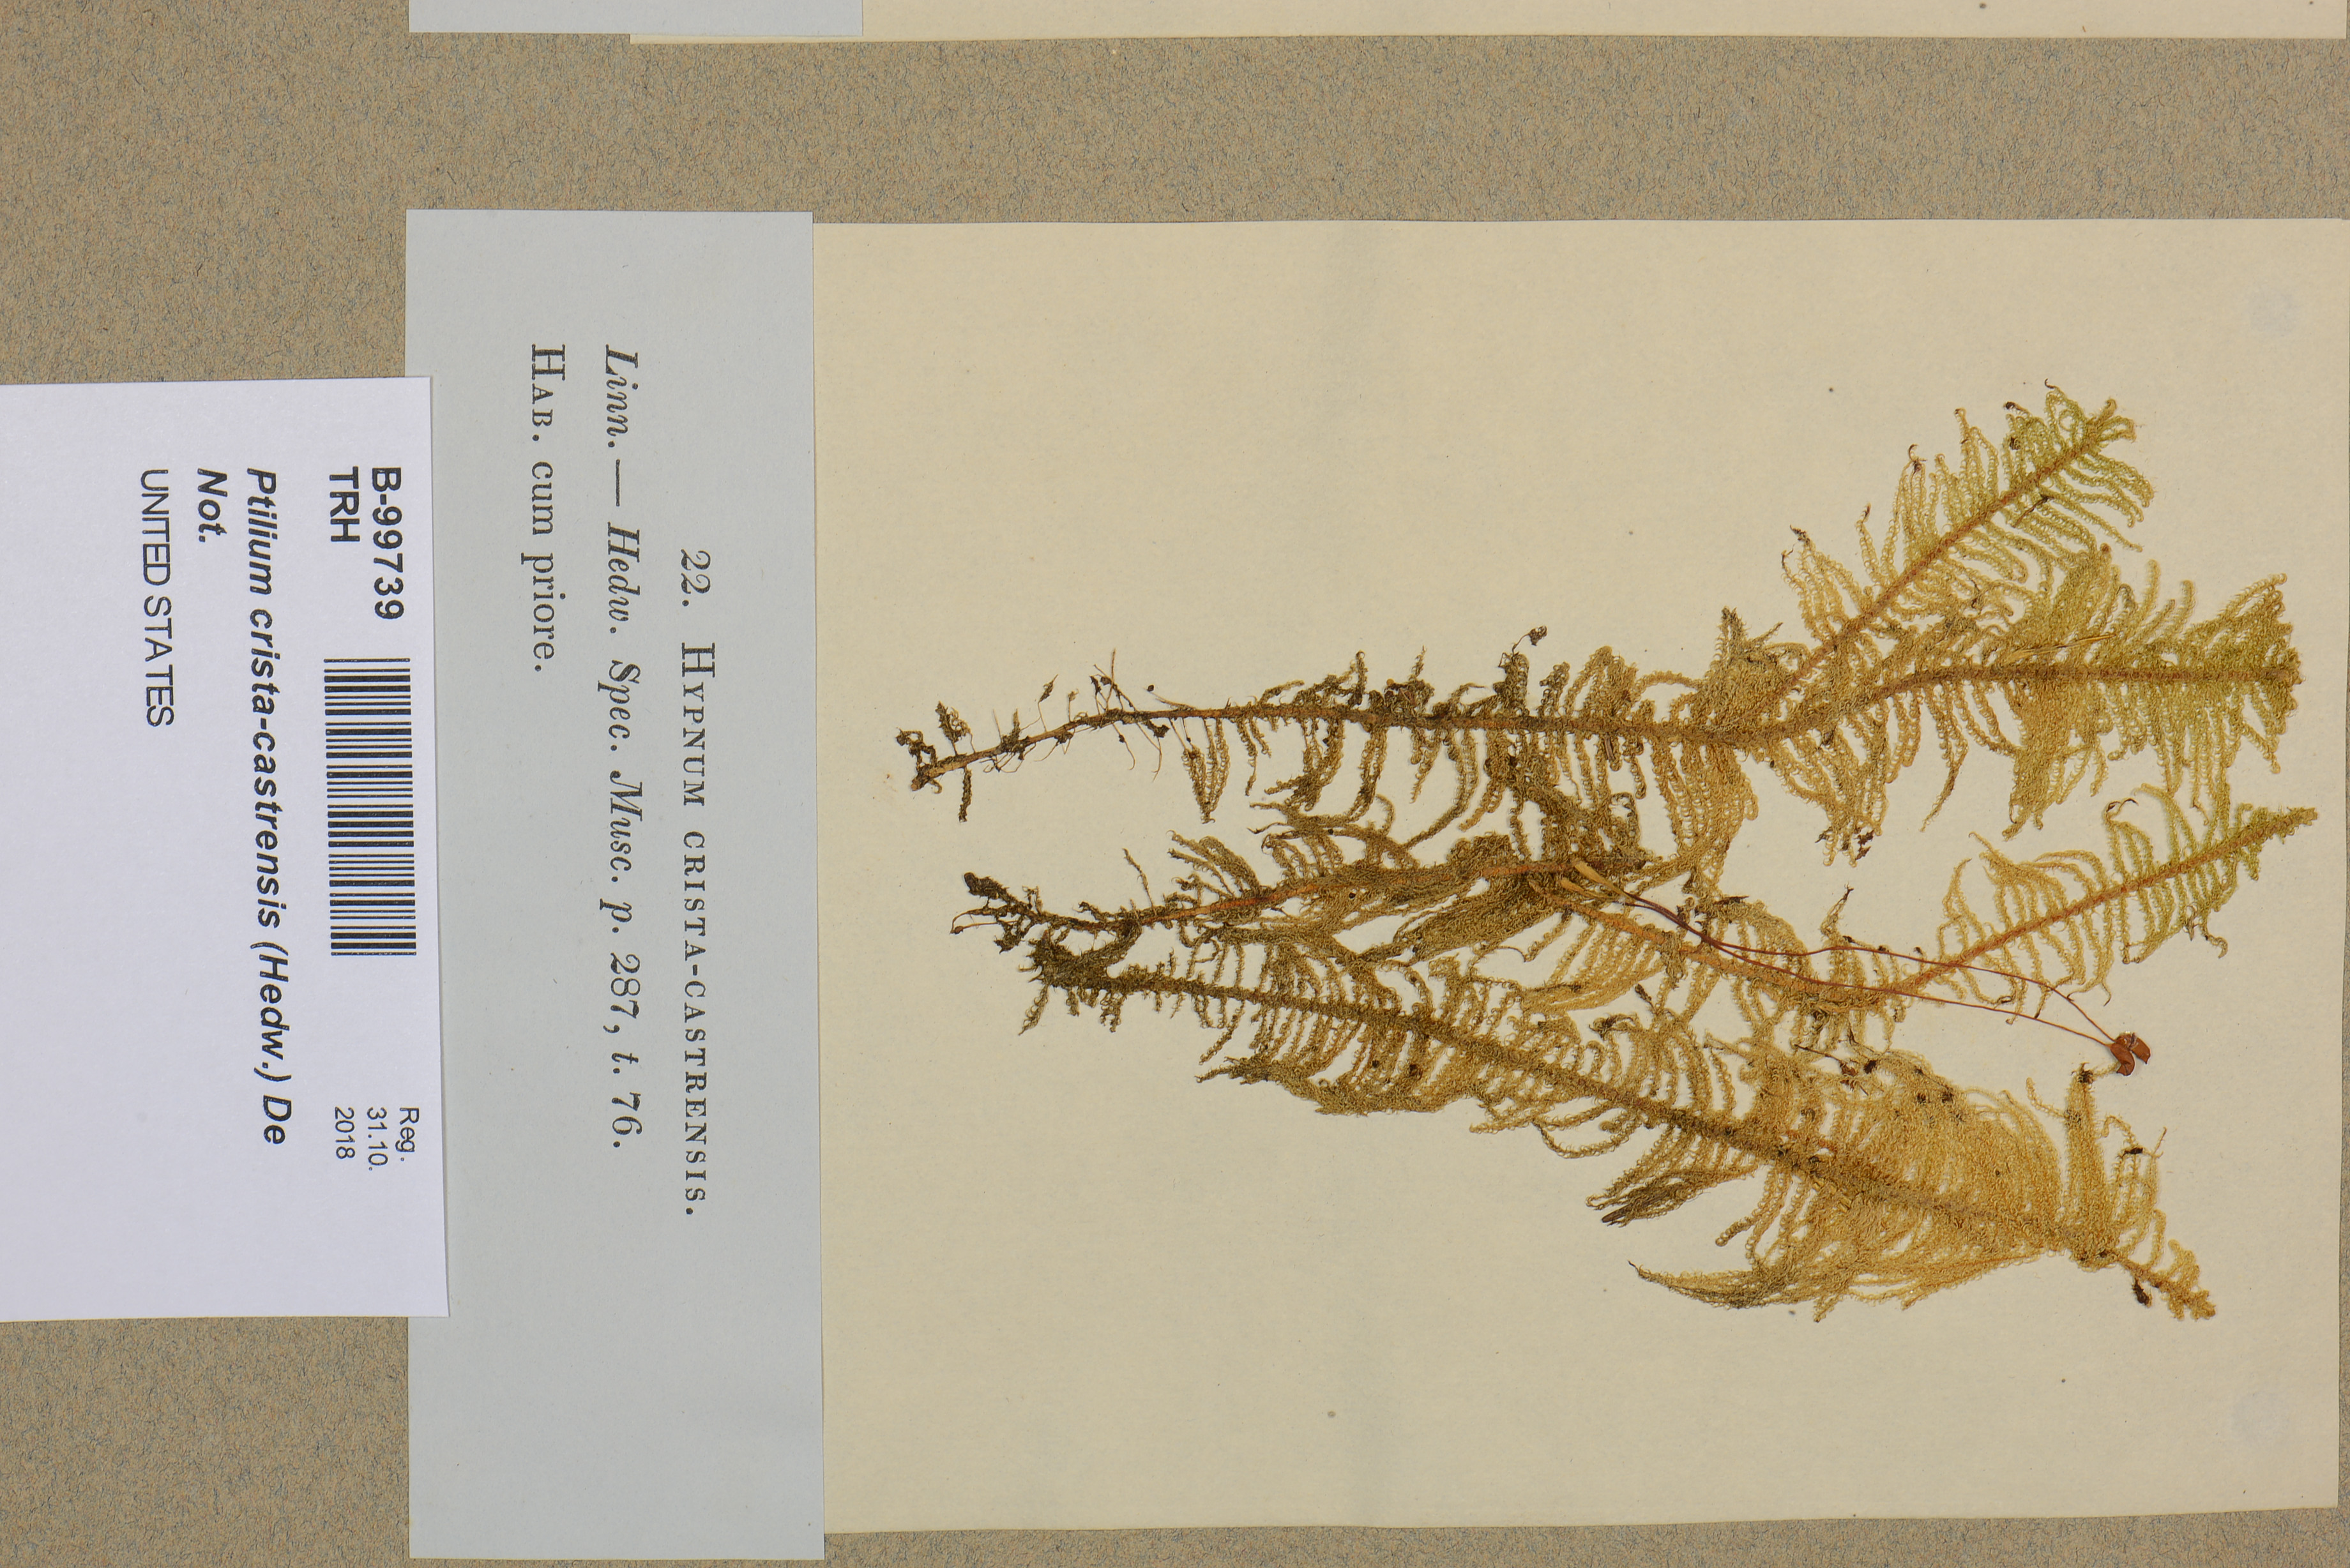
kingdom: Plantae
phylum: Bryophyta
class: Bryopsida
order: Hypnales
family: Pylaisiaceae
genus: Ptilium
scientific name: Ptilium crista-castrensis
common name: Knight's plume moss
